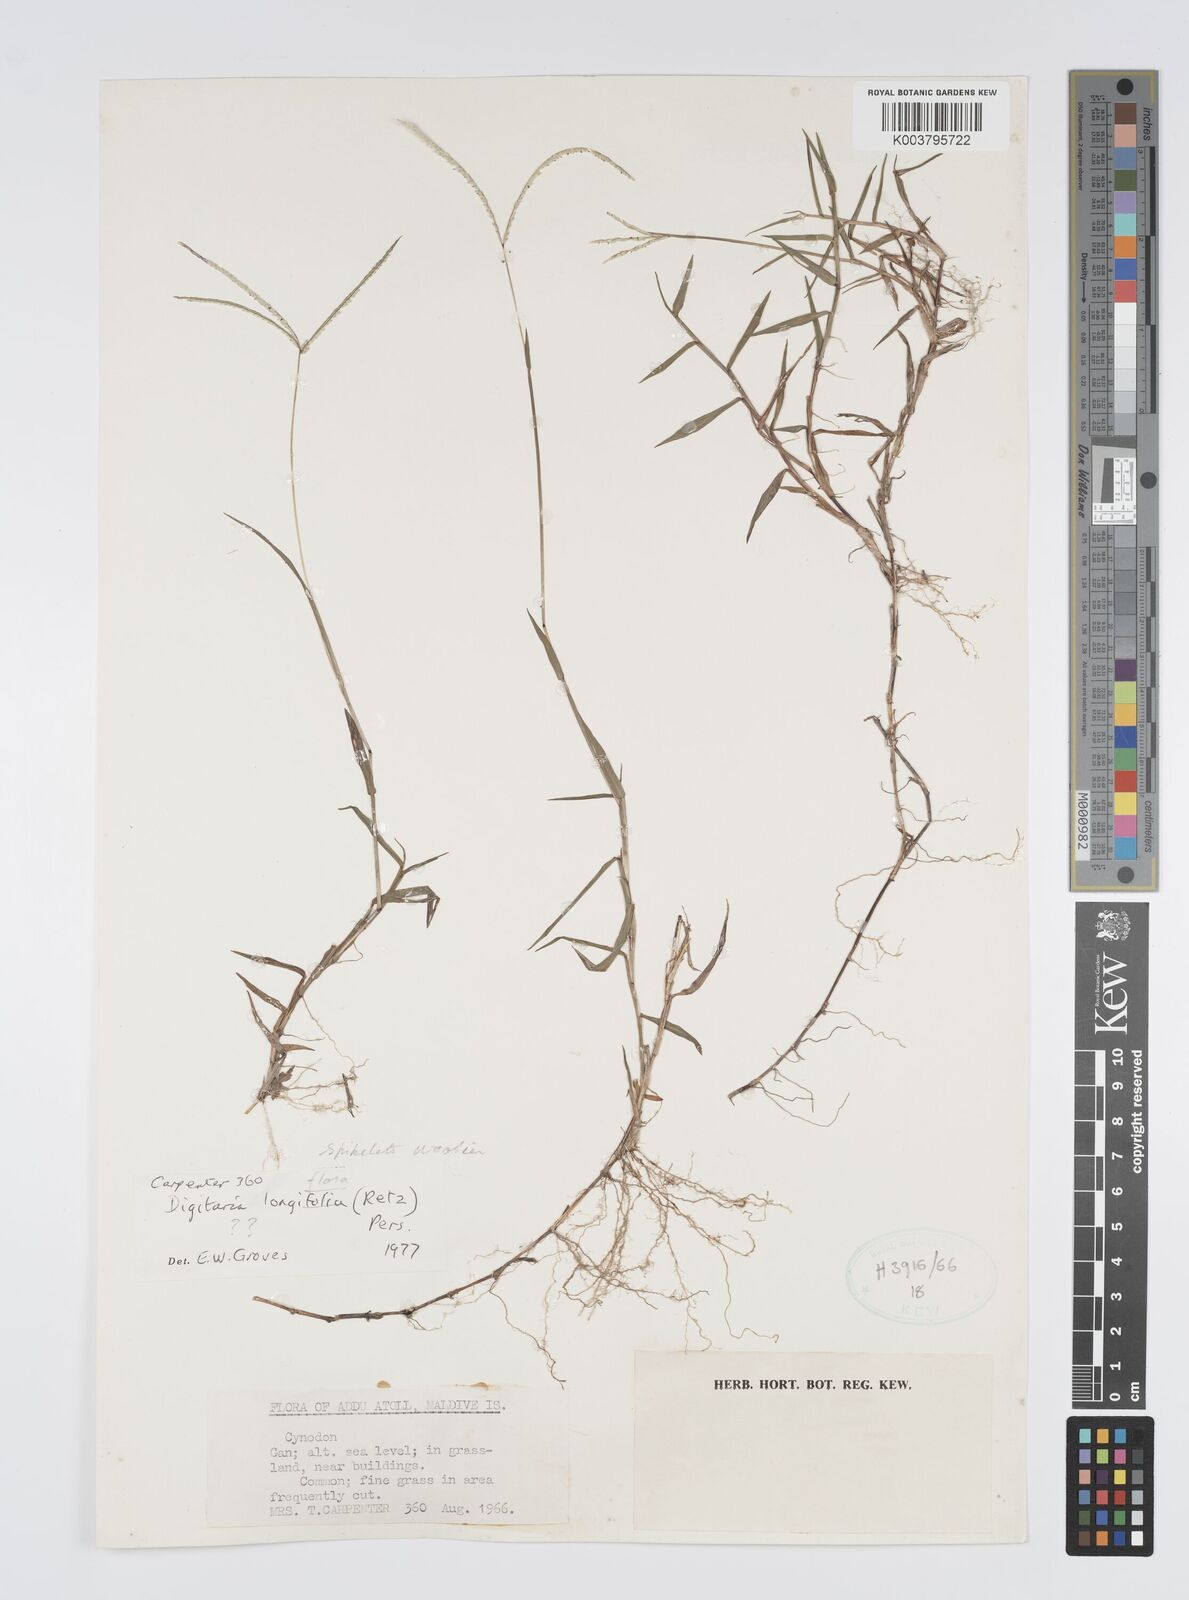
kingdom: Plantae
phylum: Tracheophyta
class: Liliopsida
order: Poales
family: Poaceae
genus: Digitaria
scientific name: Digitaria longiflora
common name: Wire crabgrass
